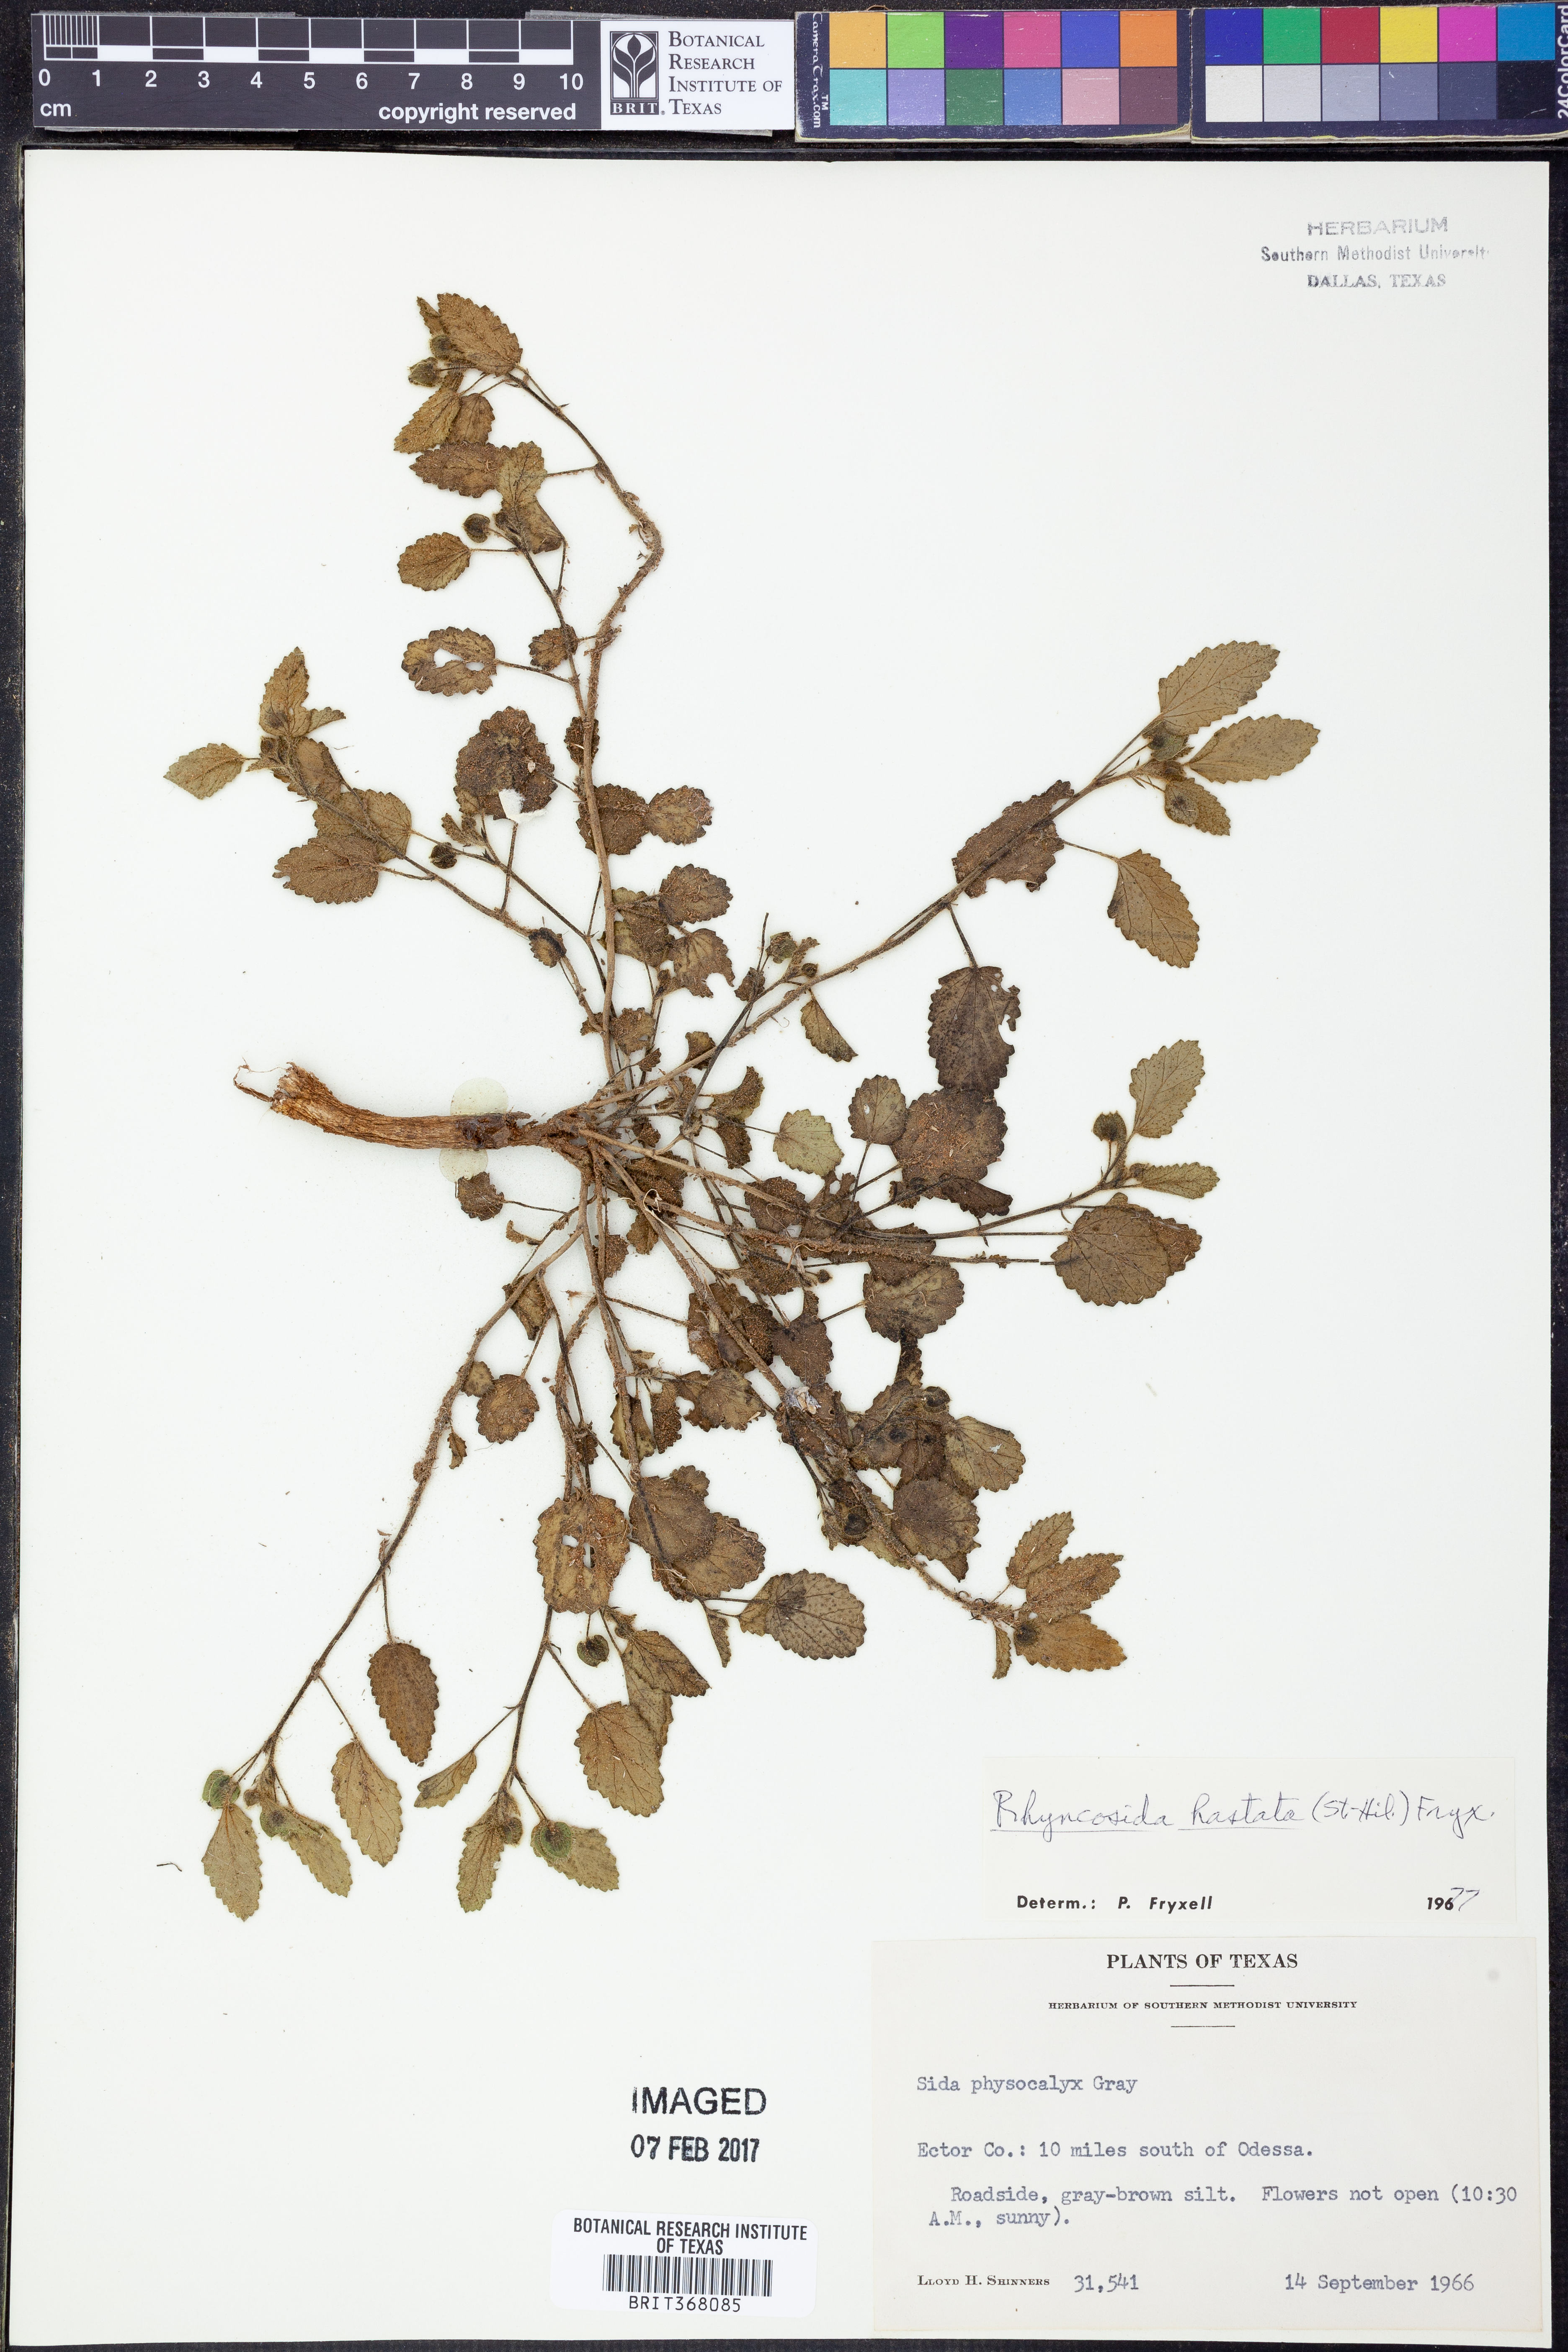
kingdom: Plantae
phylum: Tracheophyta
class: Magnoliopsida
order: Malvales
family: Malvaceae
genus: Rhynchosida
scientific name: Rhynchosida
